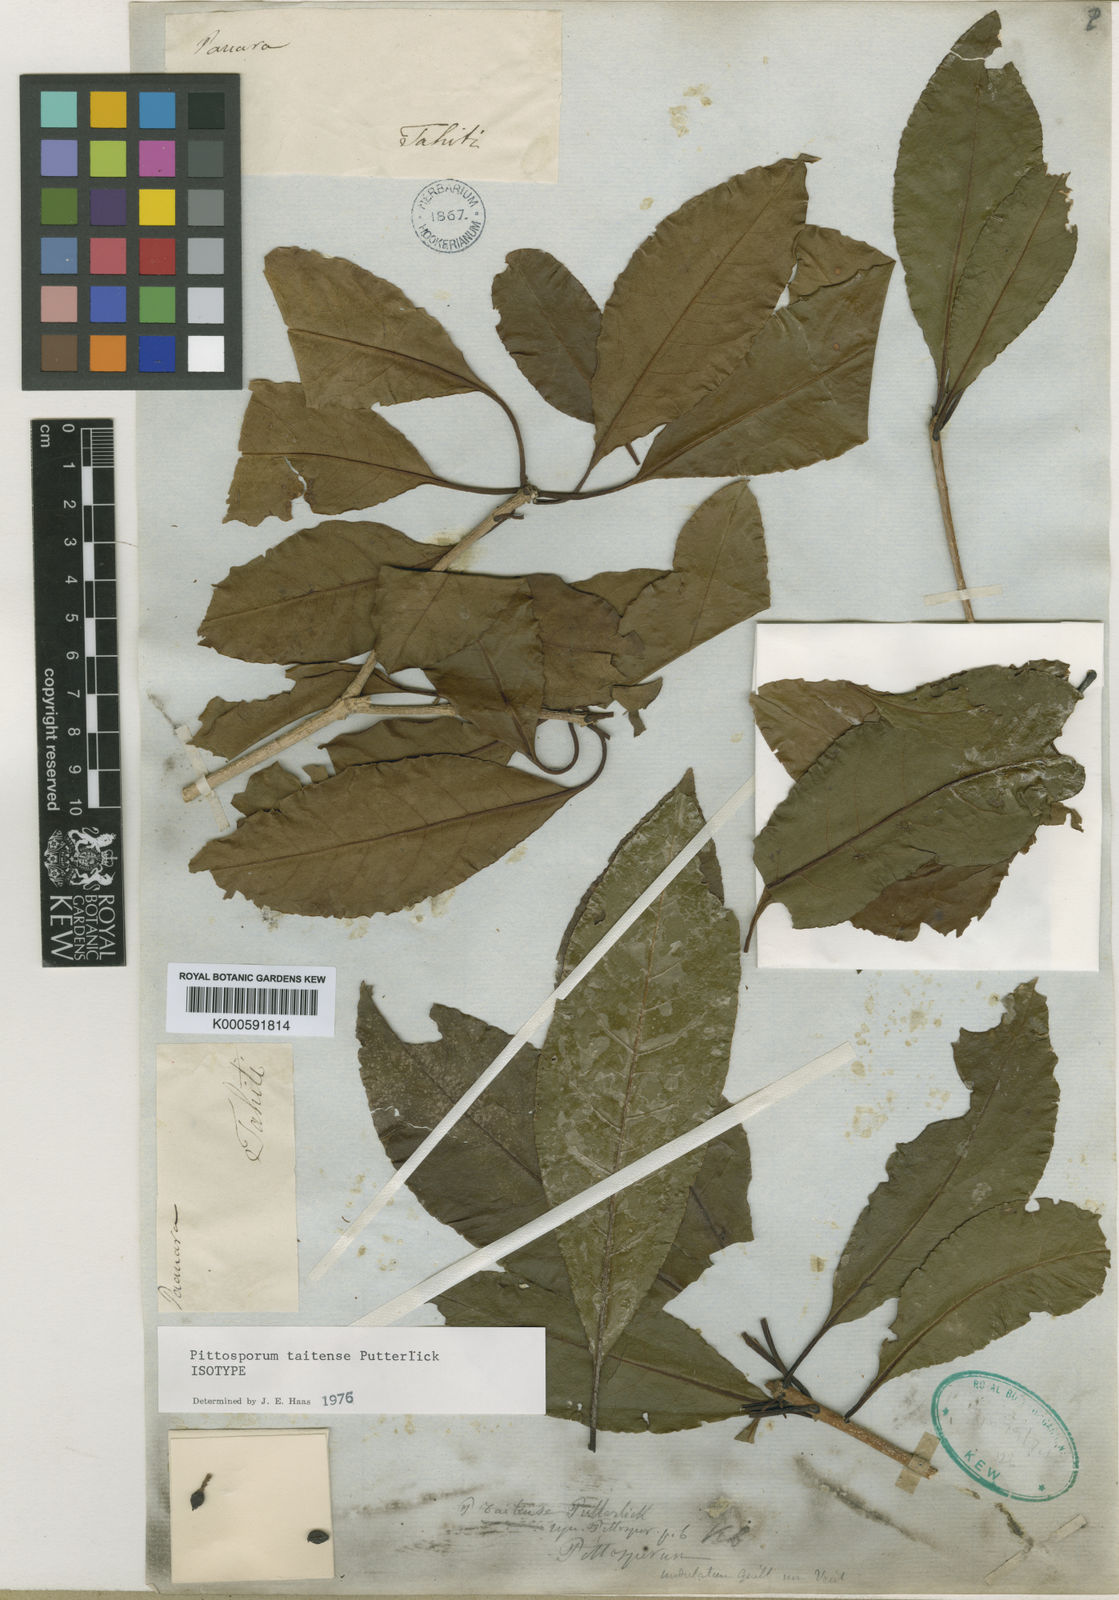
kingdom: Plantae
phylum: Tracheophyta
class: Magnoliopsida
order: Apiales
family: Pittosporaceae
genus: Pittosporum
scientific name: Pittosporum taitense
